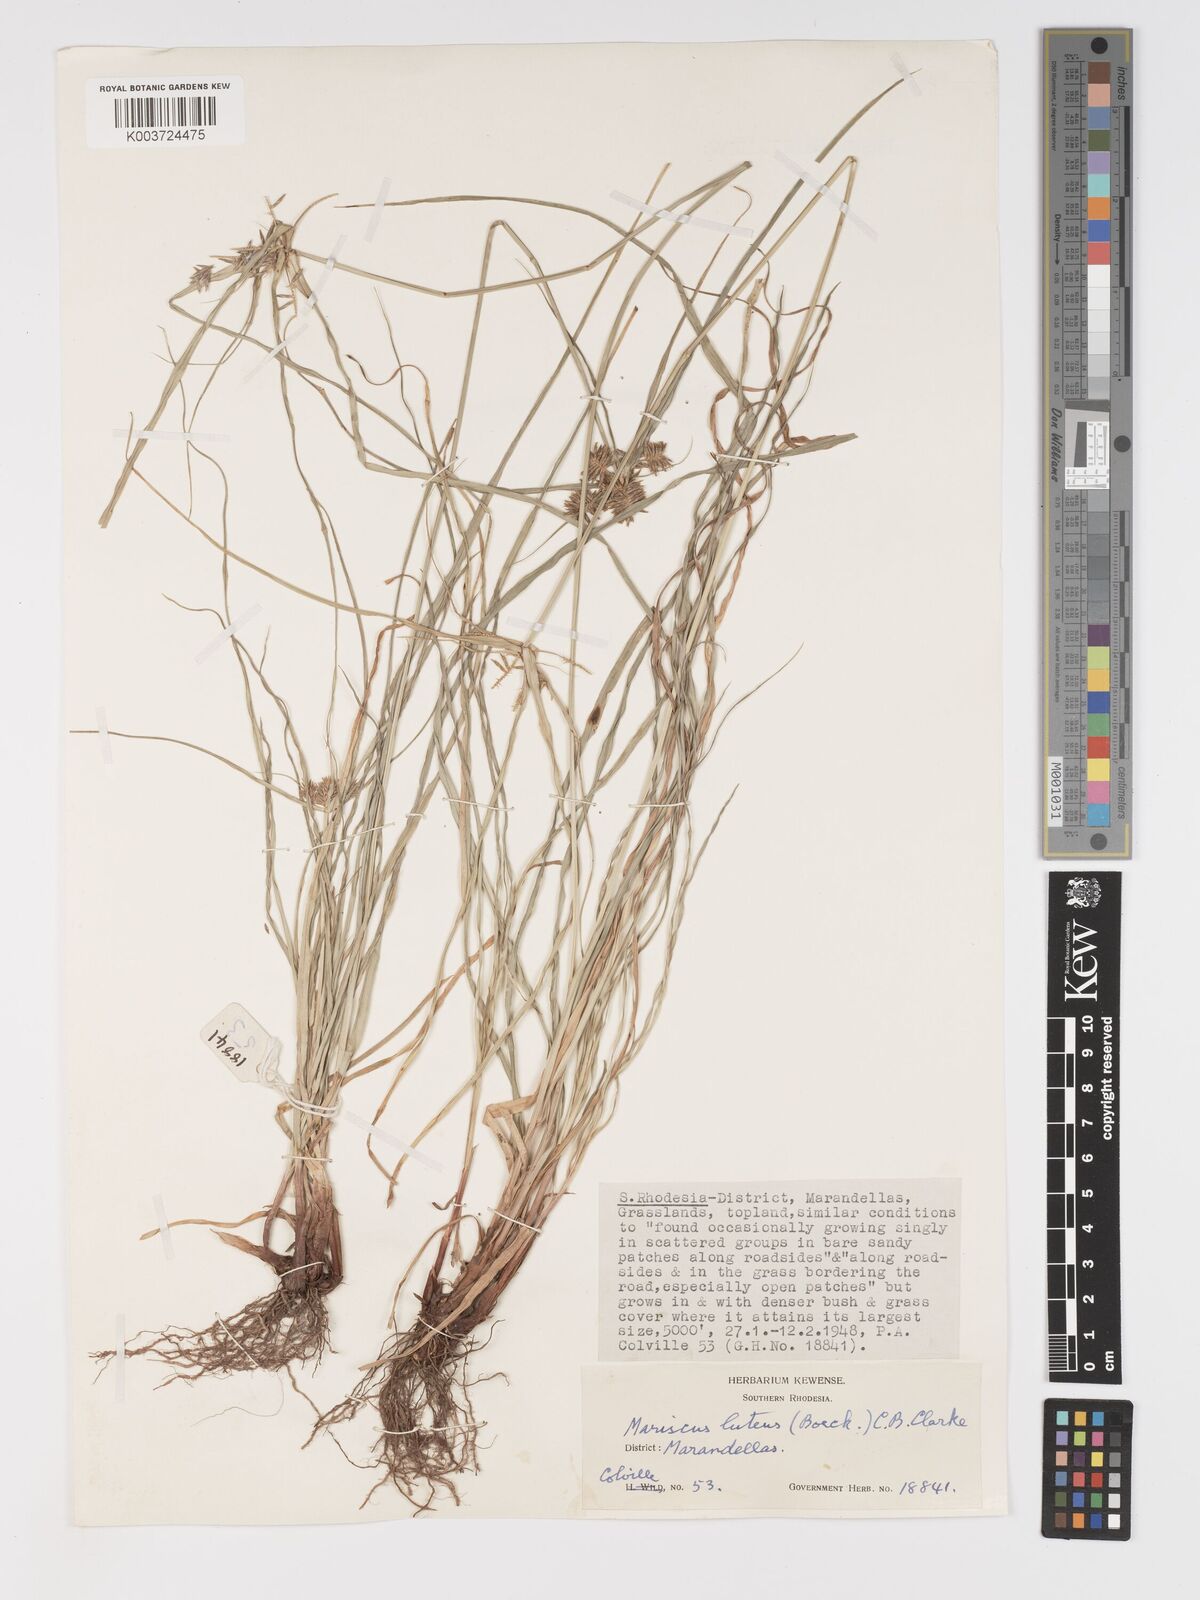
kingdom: Plantae
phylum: Tracheophyta
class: Liliopsida
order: Poales
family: Cyperaceae
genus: Cyperus
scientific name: Cyperus luteus
